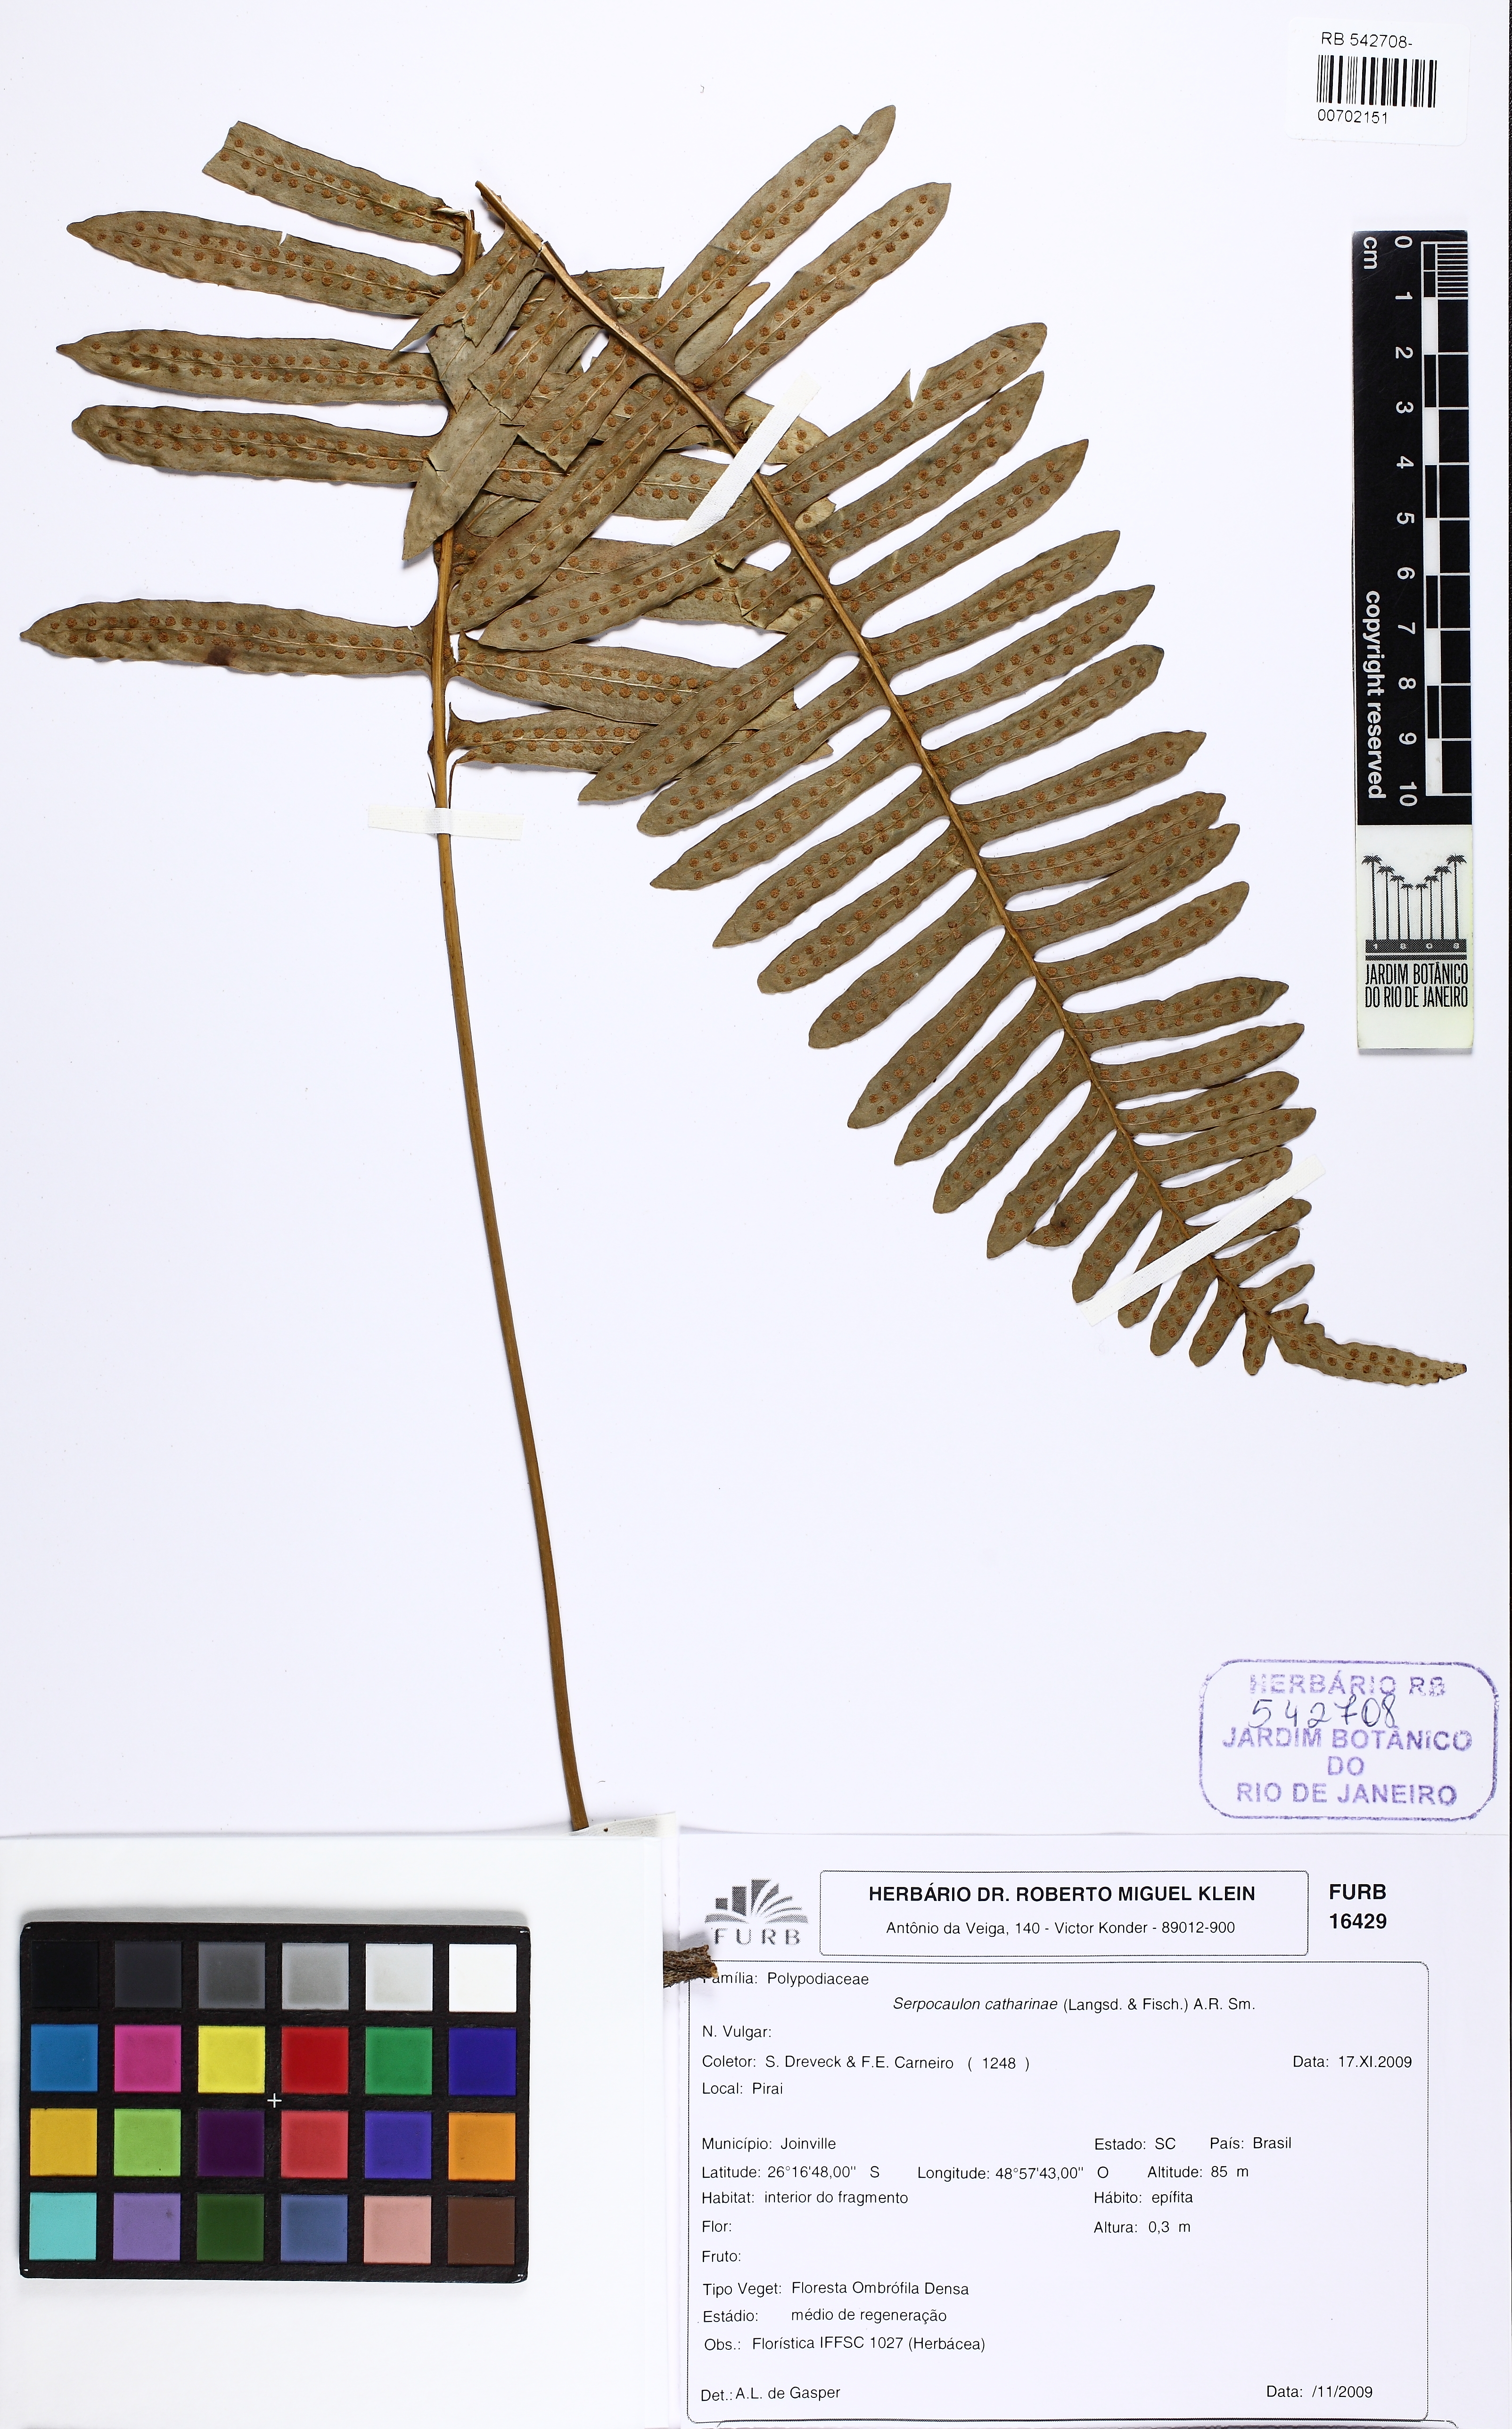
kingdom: Plantae
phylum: Tracheophyta
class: Polypodiopsida
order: Polypodiales
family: Polypodiaceae
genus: Serpocaulon
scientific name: Serpocaulon catharinae
